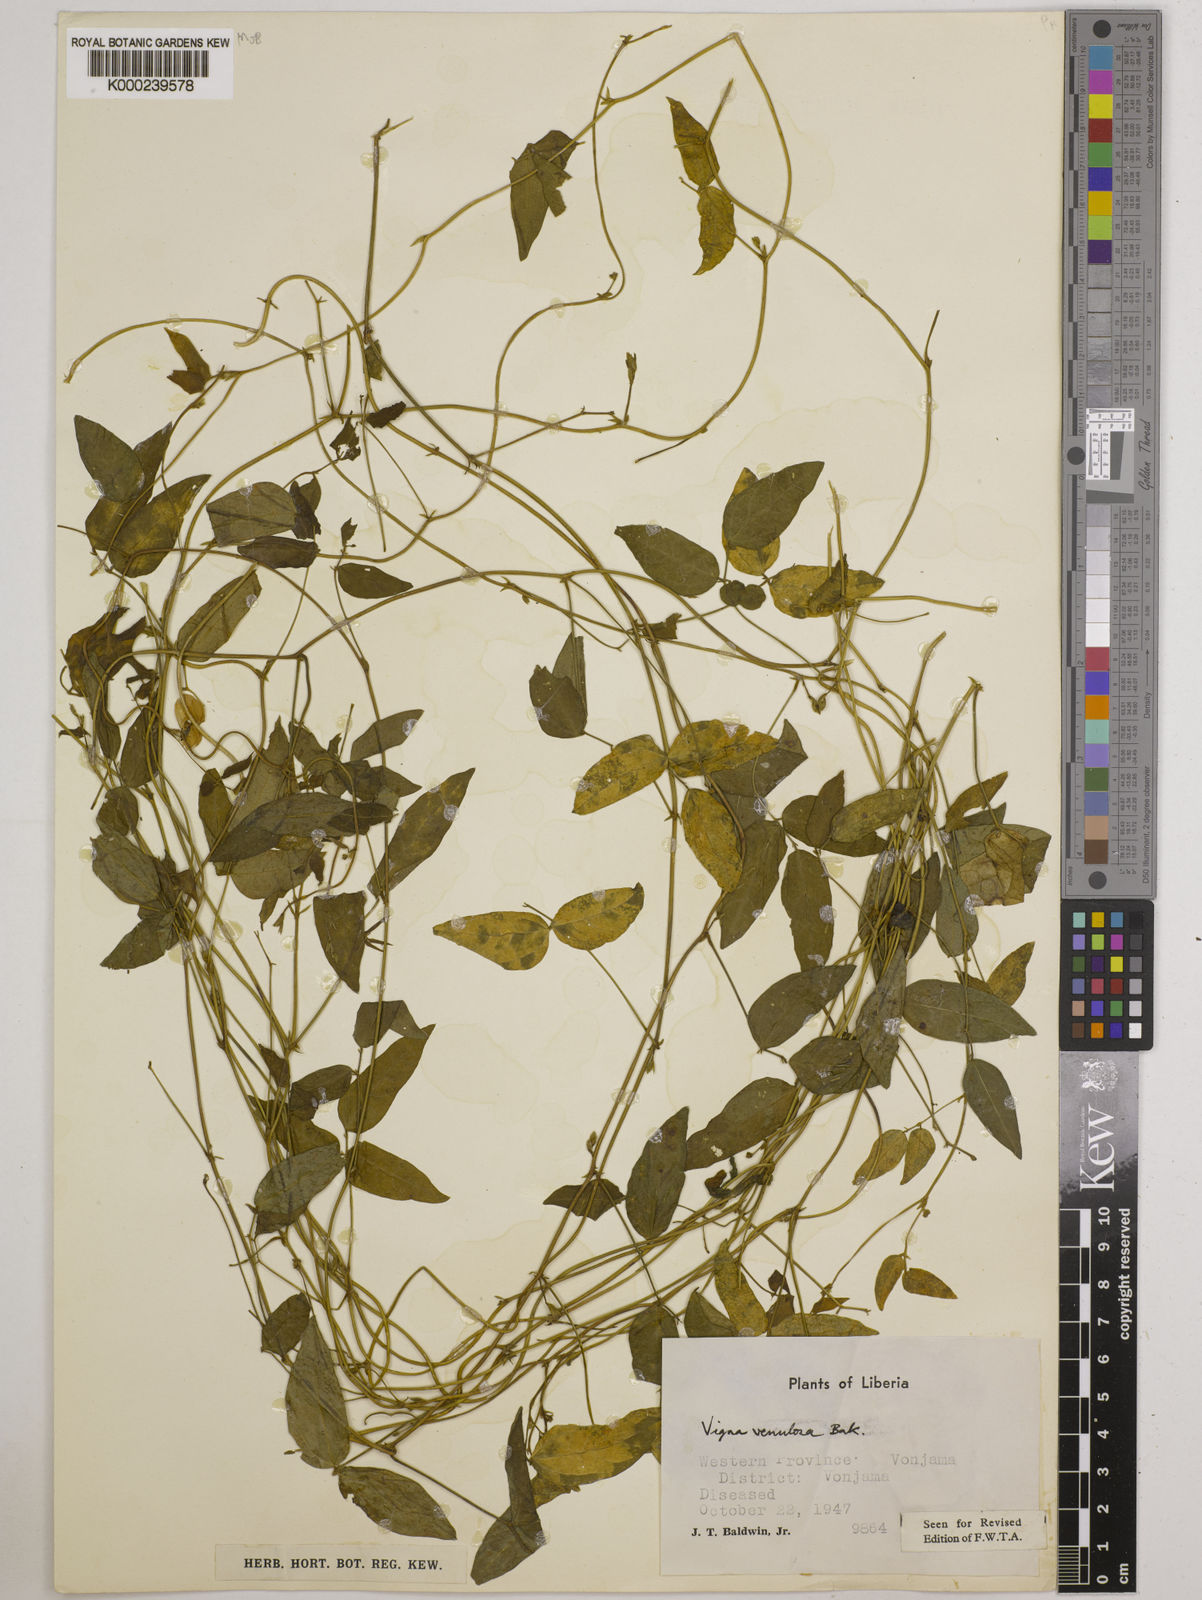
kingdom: Plantae
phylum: Tracheophyta
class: Magnoliopsida
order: Fabales
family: Fabaceae
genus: Vigna
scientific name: Vigna venulosa
